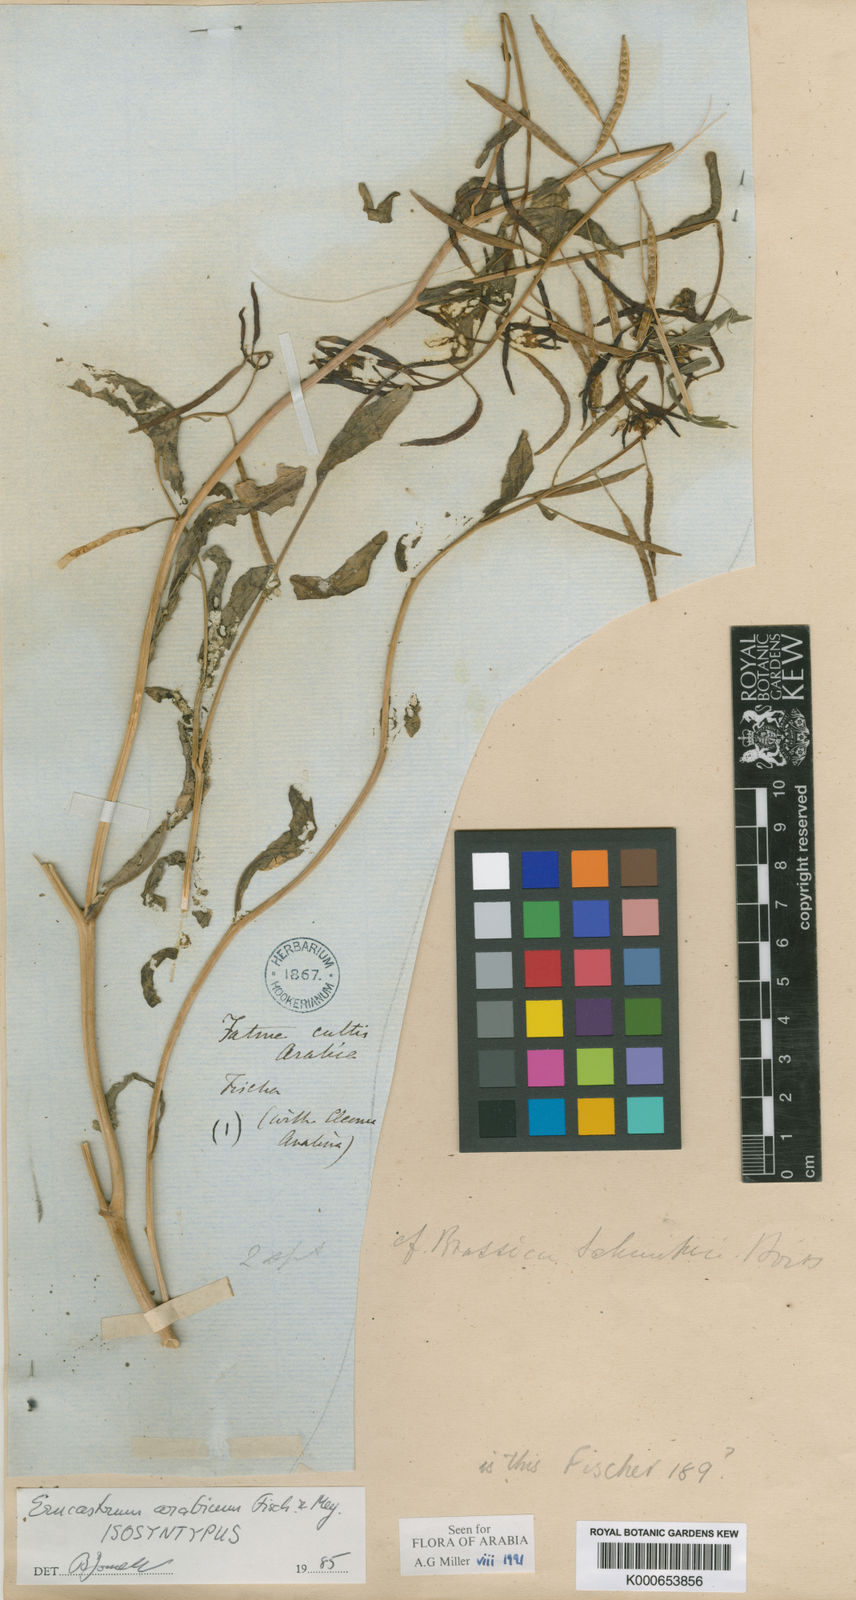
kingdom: Plantae
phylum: Tracheophyta
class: Magnoliopsida
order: Brassicales
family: Brassicaceae
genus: Erucastrum
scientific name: Erucastrum arabicum
